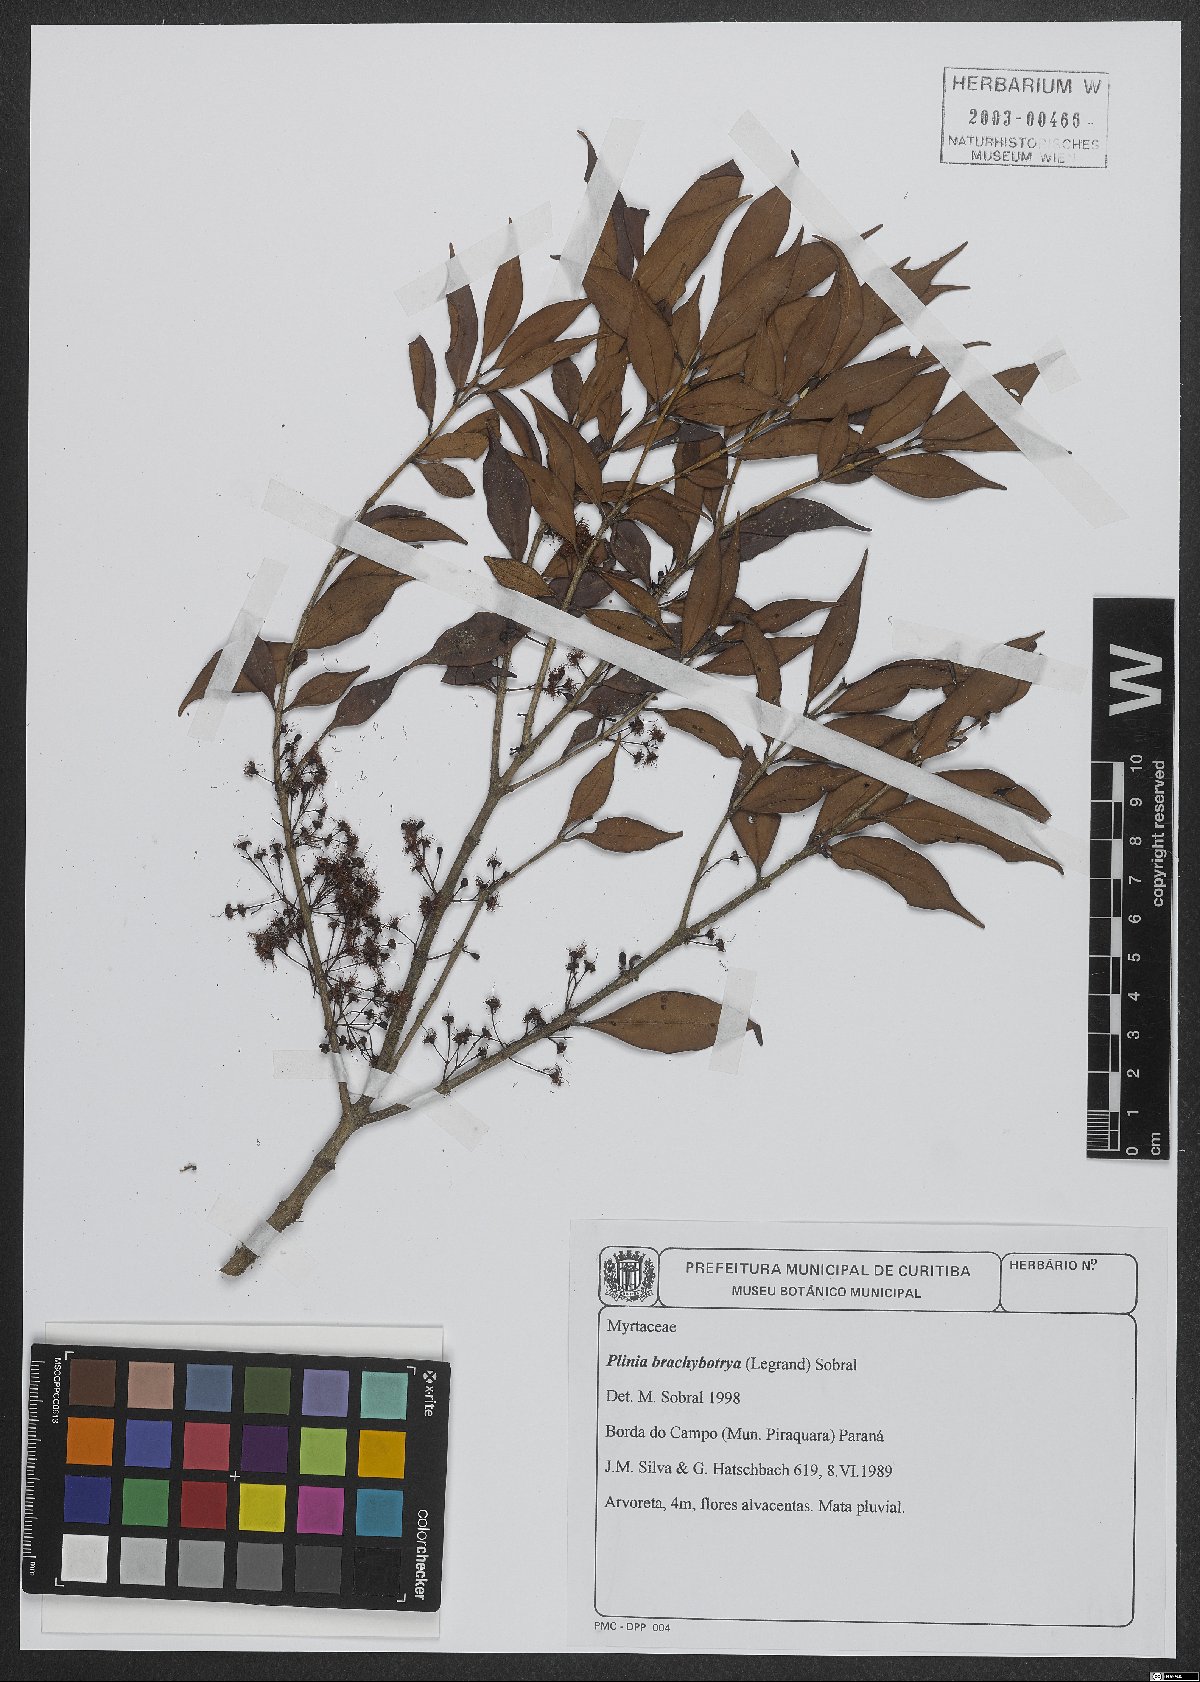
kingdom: Plantae
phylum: Tracheophyta
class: Magnoliopsida
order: Myrtales
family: Myrtaceae
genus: Plinia
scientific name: Plinia brachybotrya
